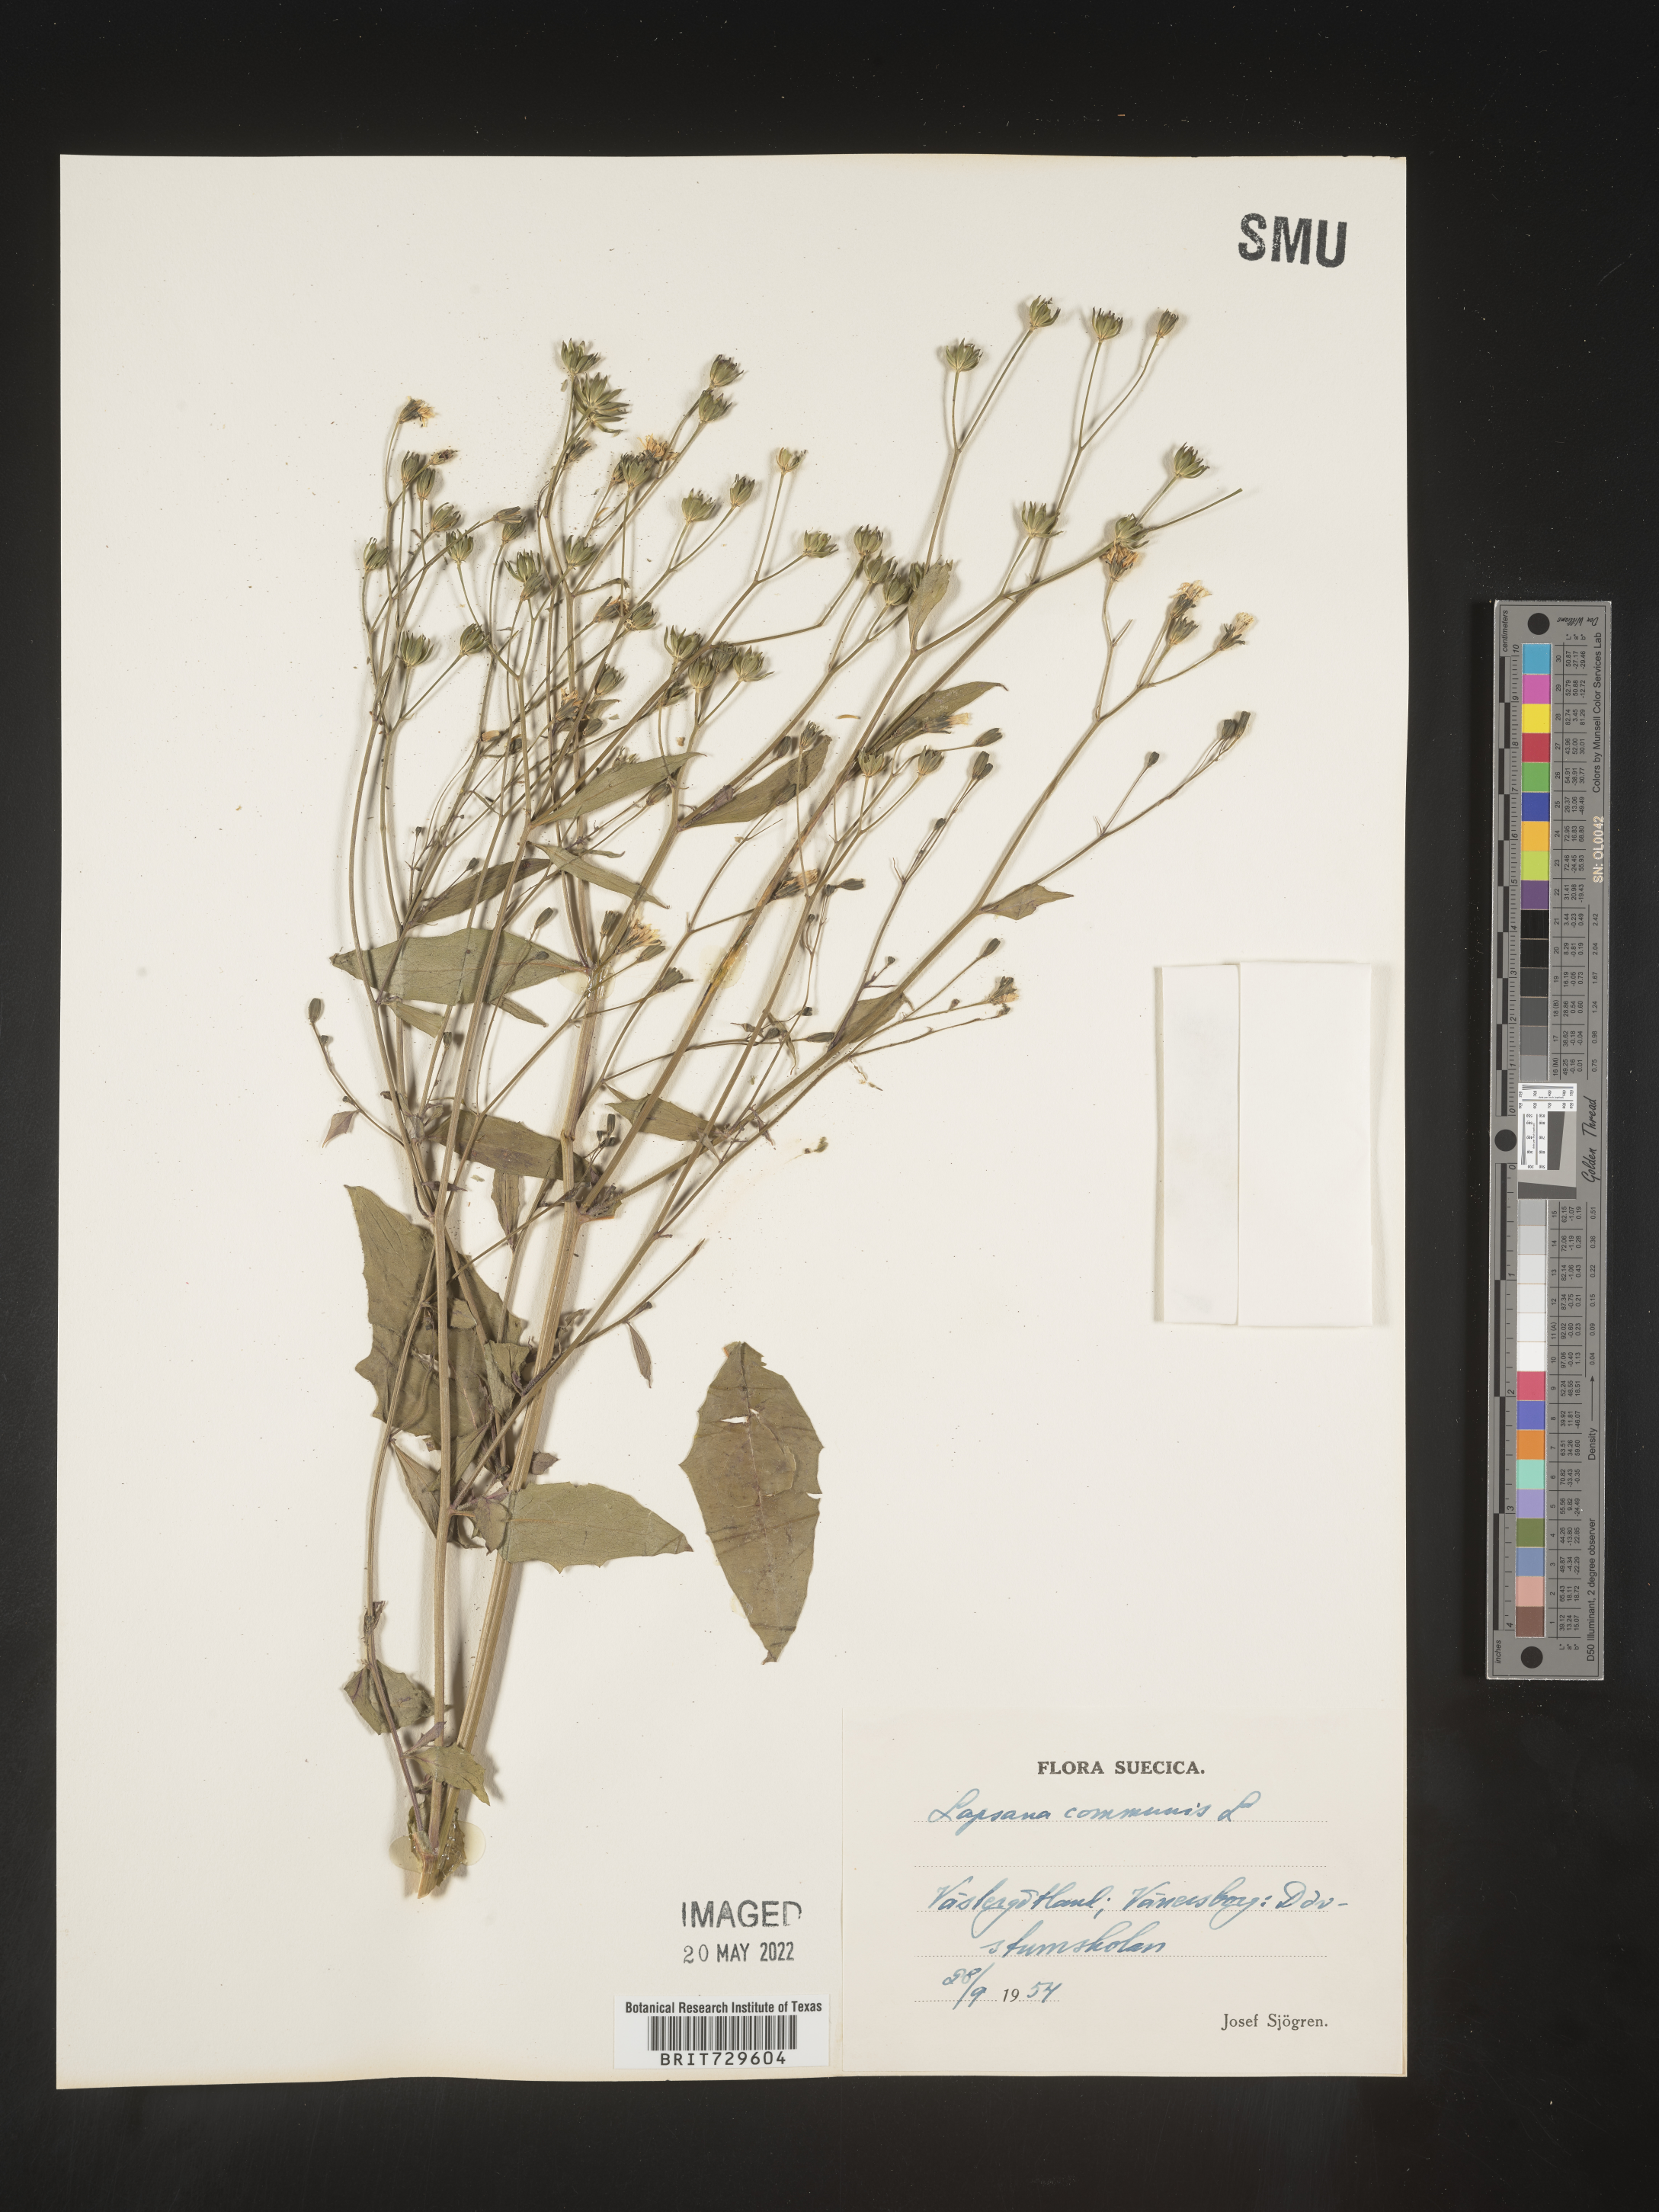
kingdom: Plantae
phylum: Tracheophyta
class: Magnoliopsida
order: Asterales
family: Asteraceae
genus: Lapsana
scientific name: Lapsana
